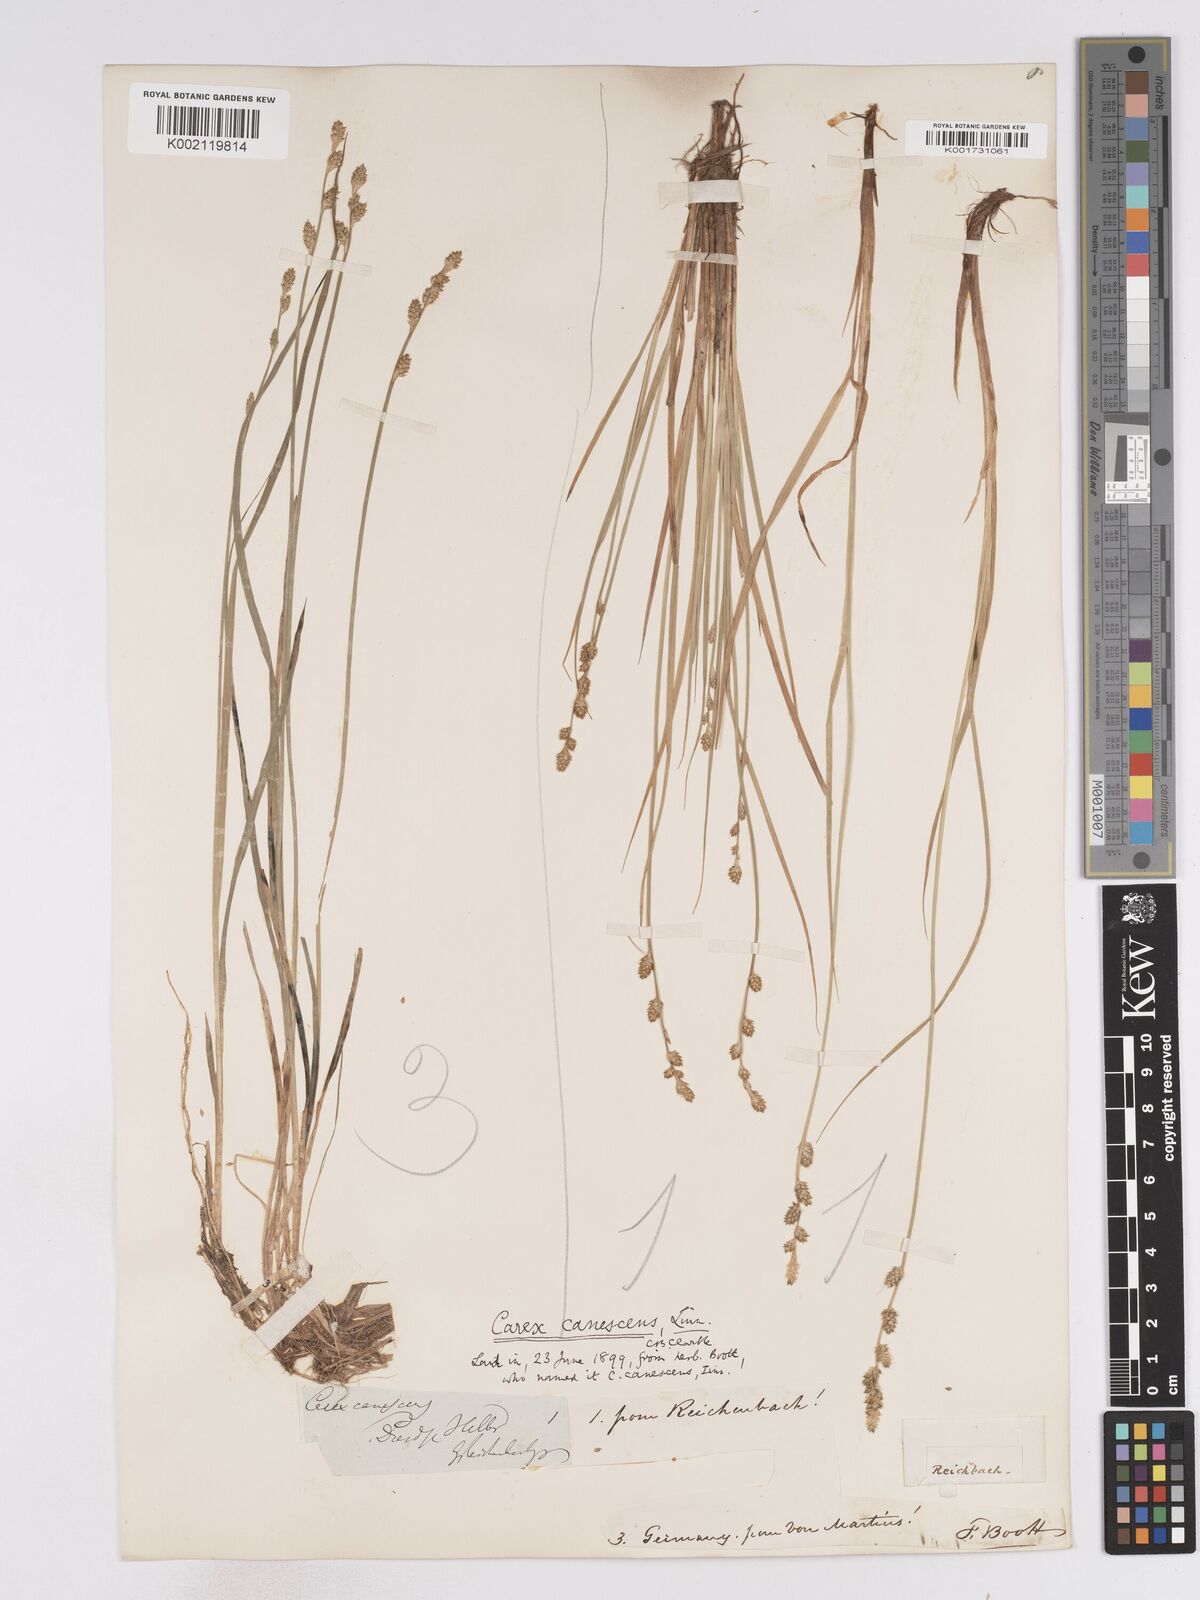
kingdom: Plantae
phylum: Tracheophyta
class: Liliopsida
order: Poales
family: Cyperaceae
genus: Carex
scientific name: Carex curta
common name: White sedge
